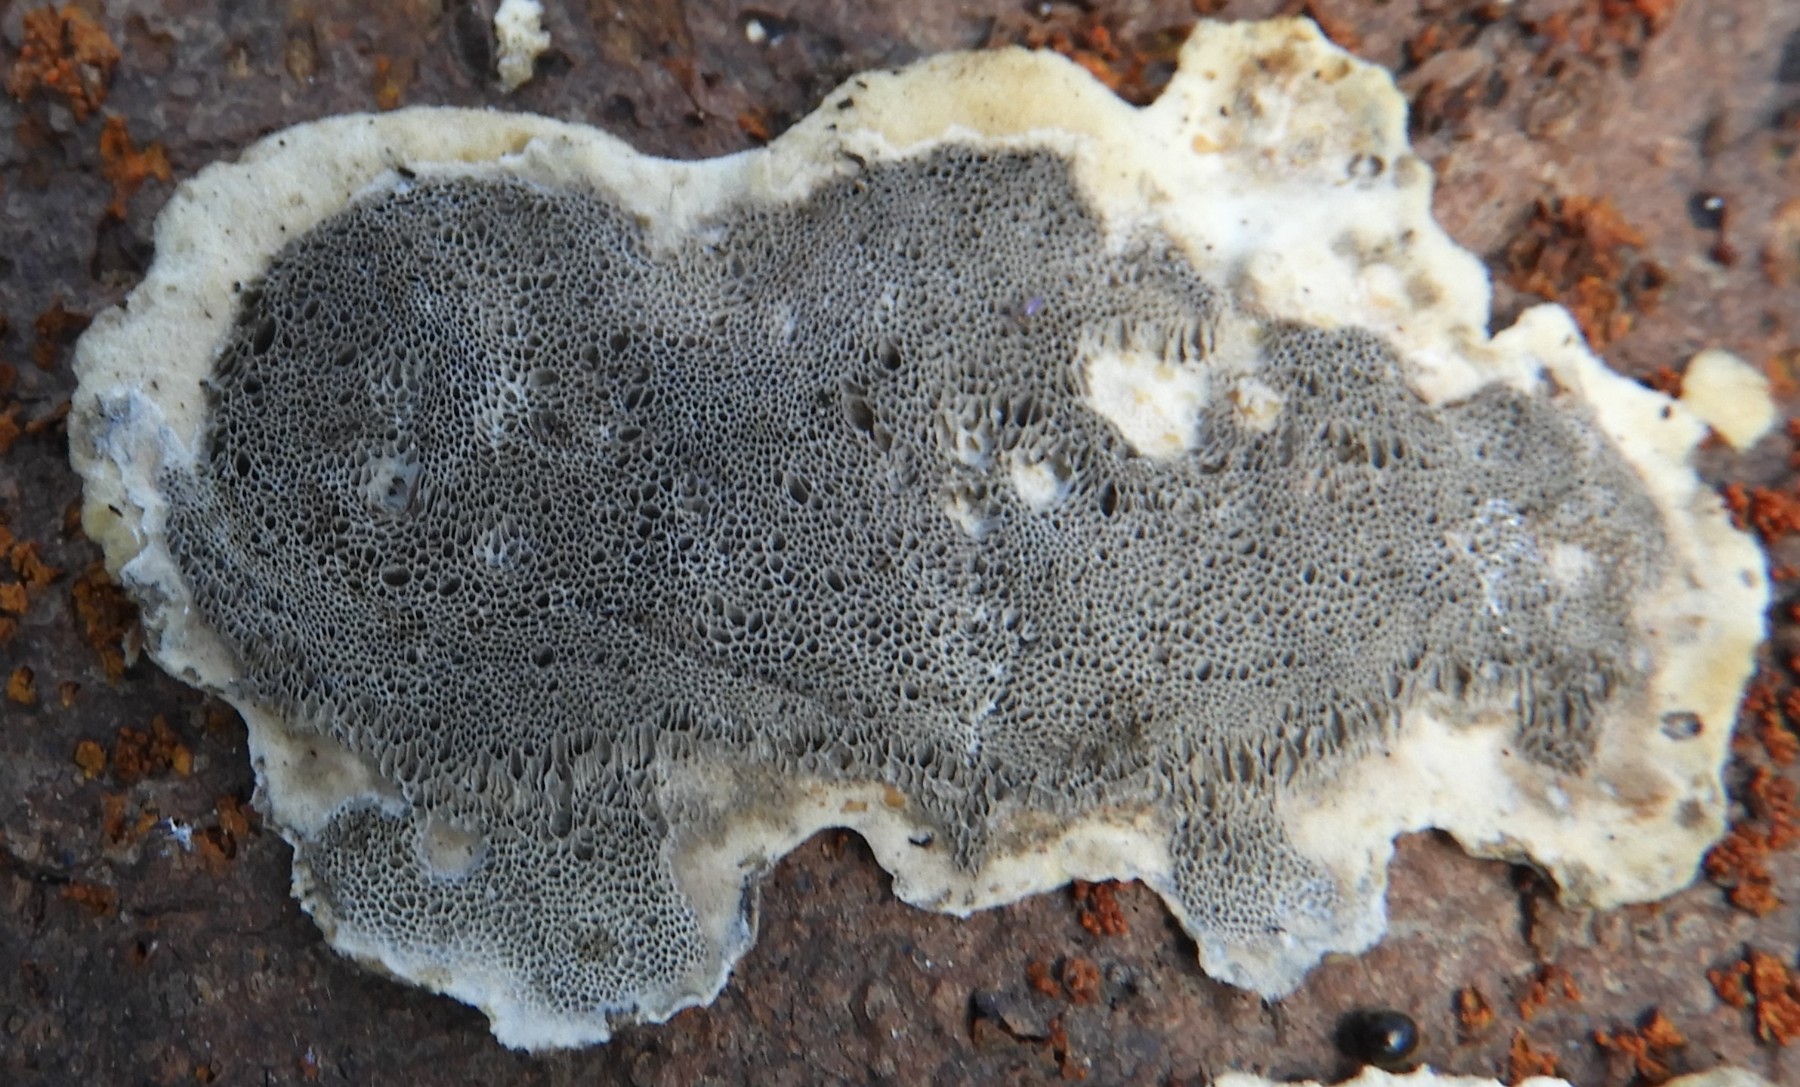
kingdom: Fungi
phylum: Basidiomycota
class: Agaricomycetes
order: Polyporales
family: Phanerochaetaceae
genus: Bjerkandera
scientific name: Bjerkandera adusta
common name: sveden sodporesvamp
